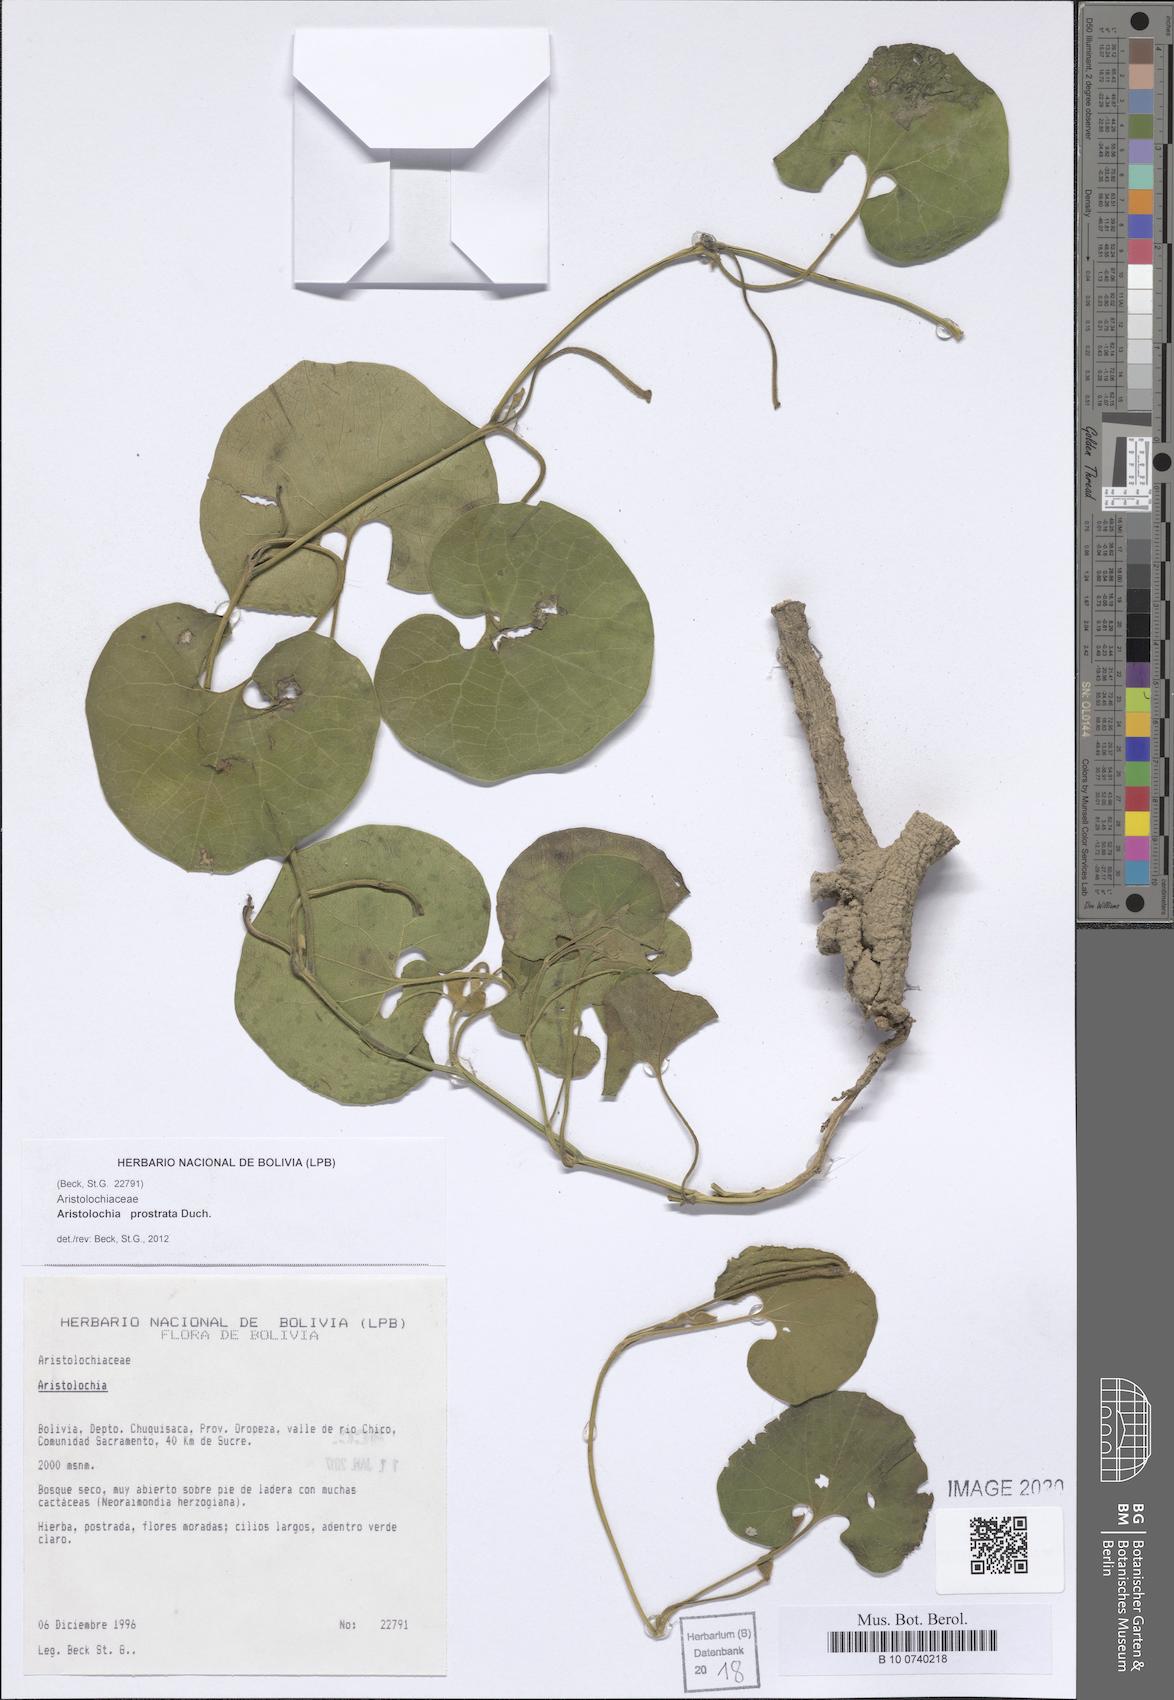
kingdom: Plantae
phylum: Tracheophyta
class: Magnoliopsida
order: Piperales
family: Aristolochiaceae
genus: Aristolochia
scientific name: Aristolochia prostrata
